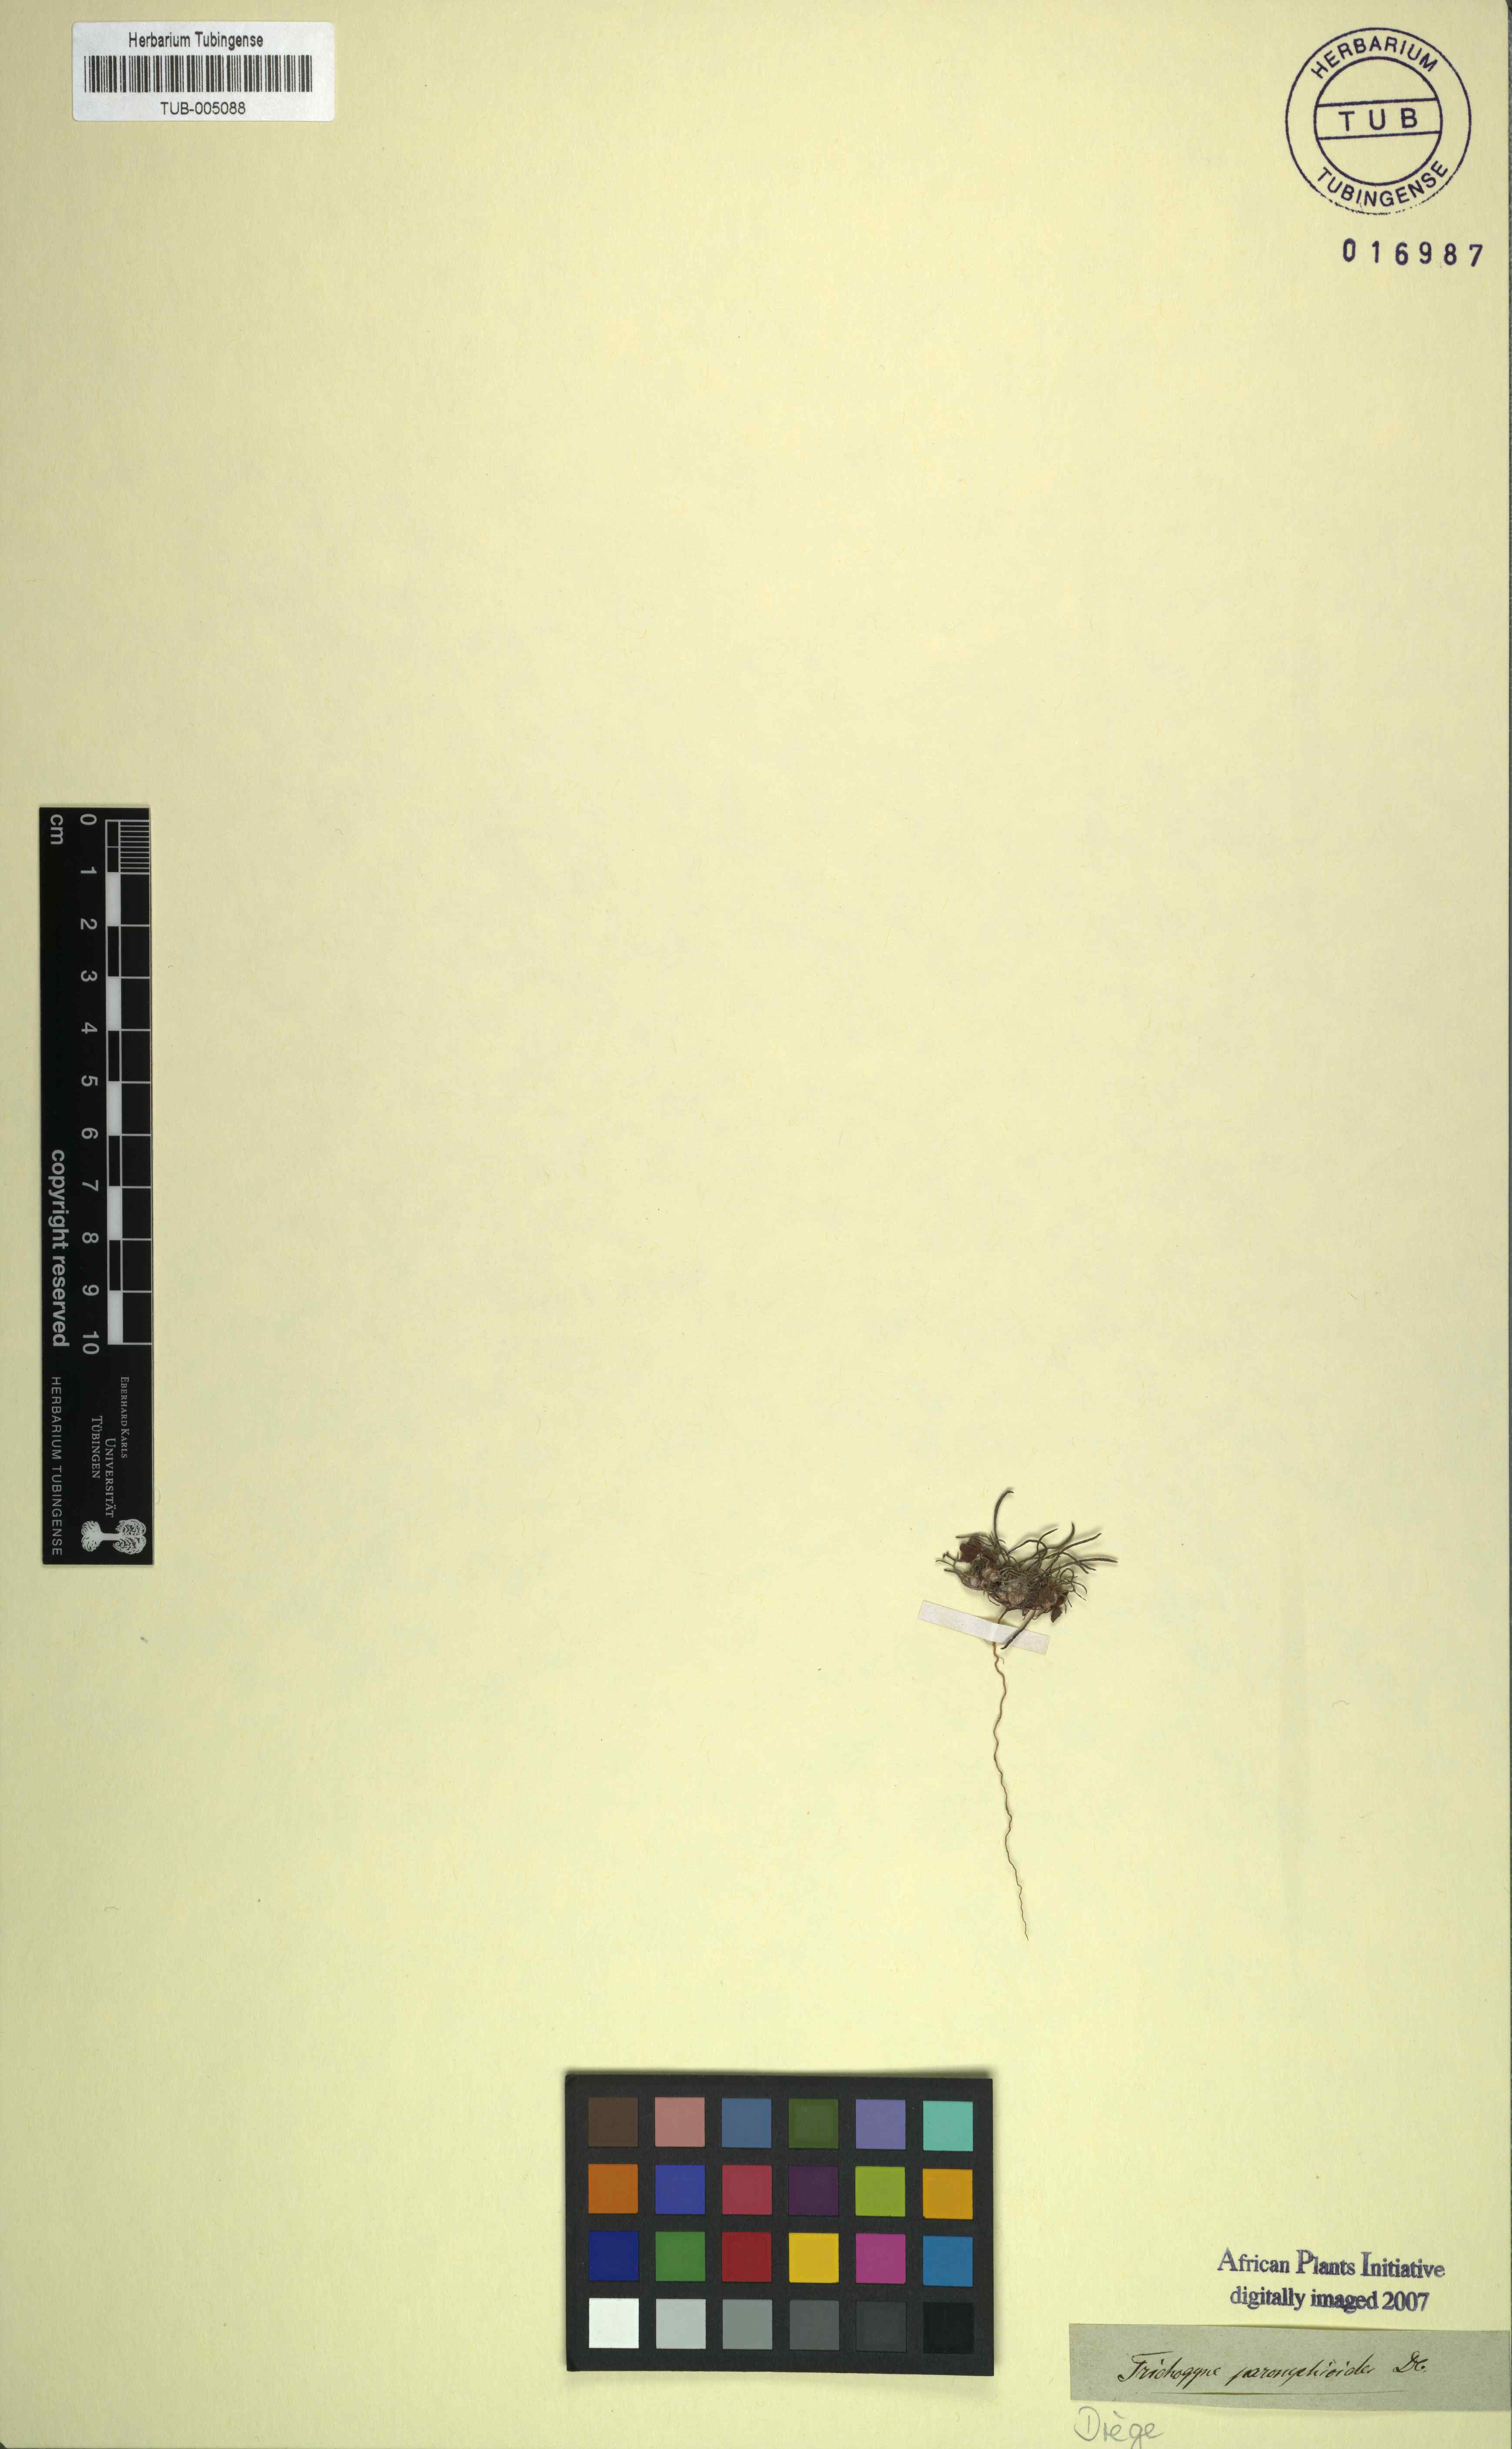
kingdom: Plantae
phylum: Tracheophyta
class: Magnoliopsida
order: Asterales
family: Asteraceae
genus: Ifloga
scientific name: Ifloga paronychioides
